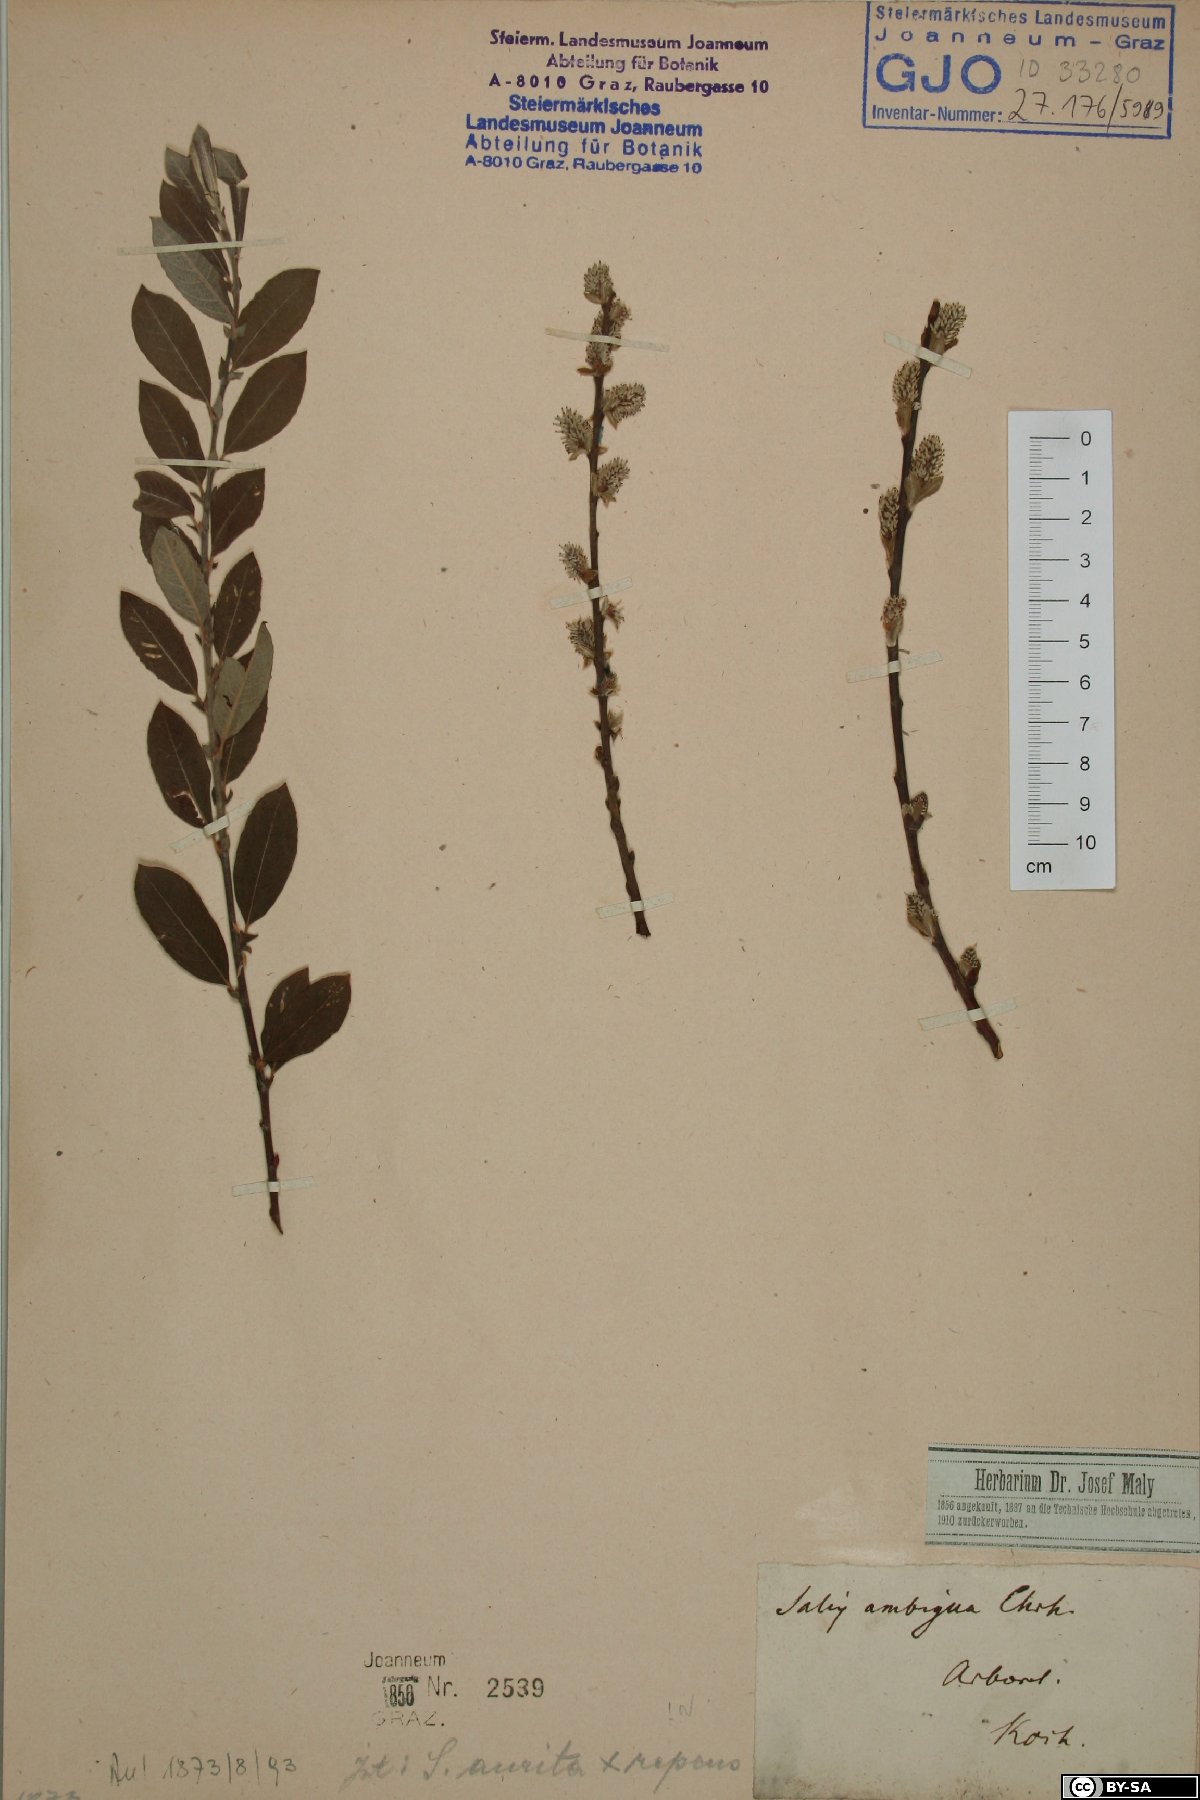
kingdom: Plantae
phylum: Tracheophyta
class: Magnoliopsida
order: Malpighiales
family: Salicaceae
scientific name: Salicaceae
